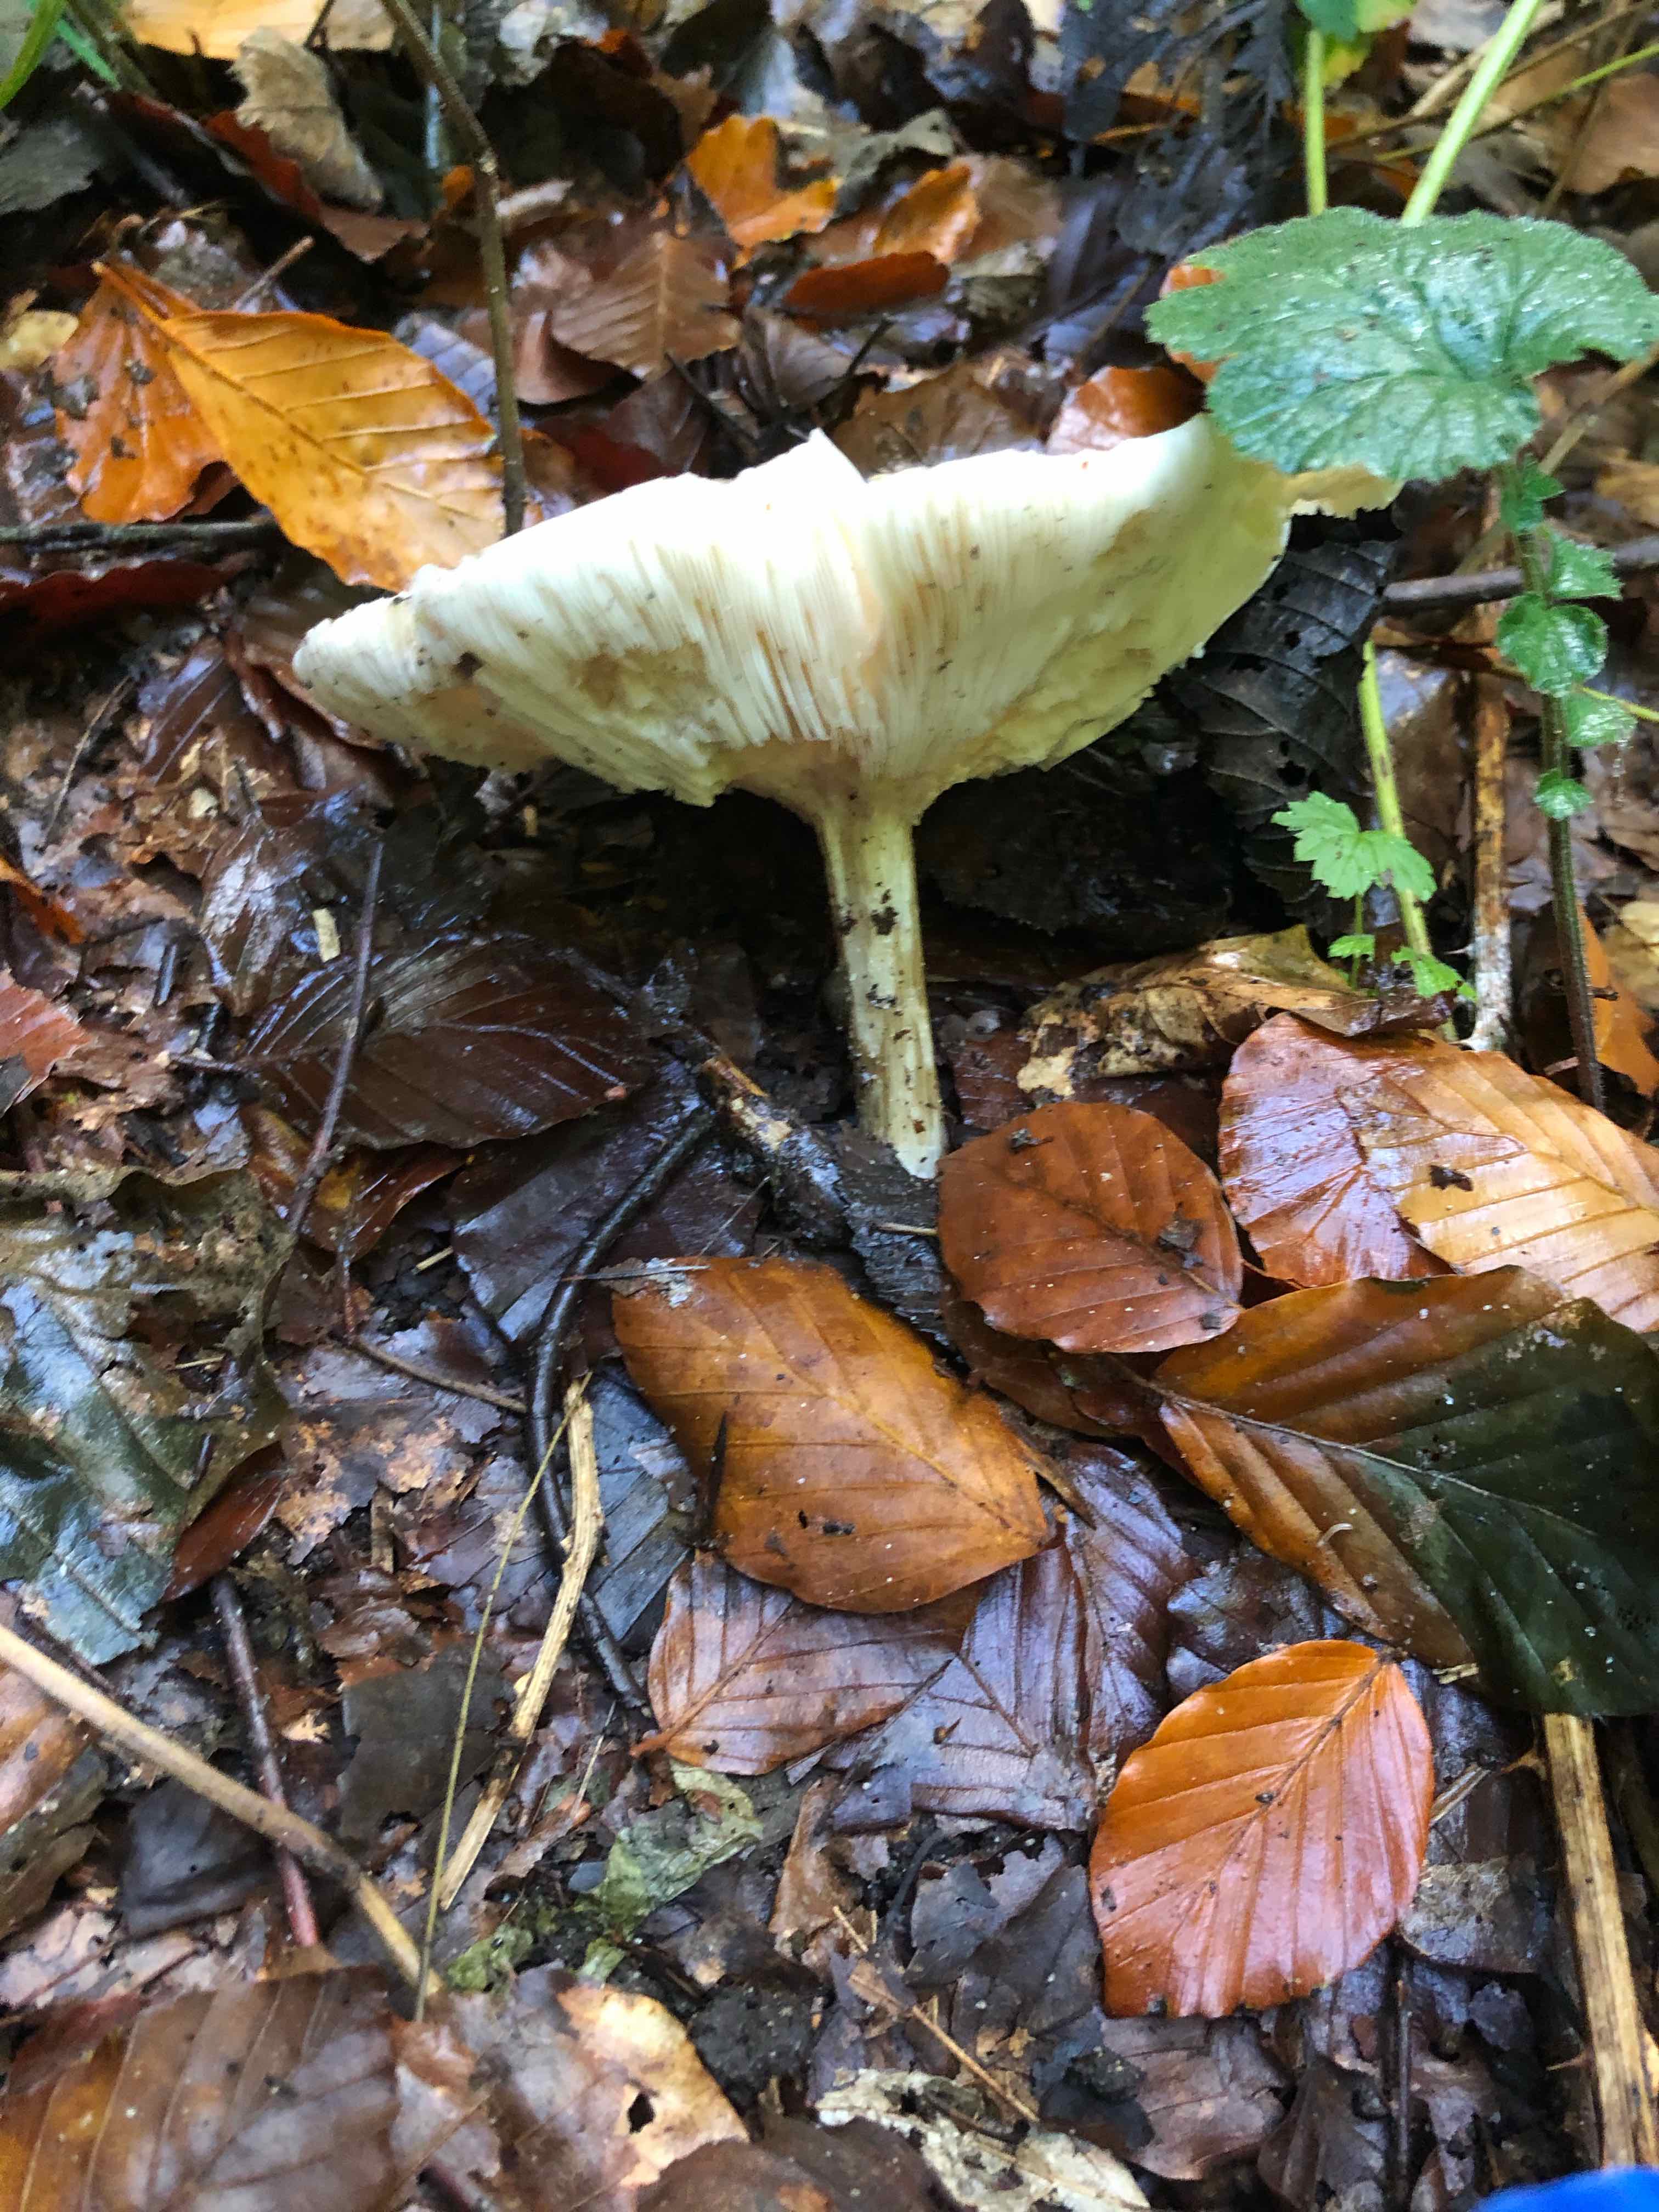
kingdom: Fungi
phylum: Basidiomycota
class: Agaricomycetes
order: Agaricales
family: Tricholomataceae
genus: Melanoleuca
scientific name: Melanoleuca
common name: munkehat
